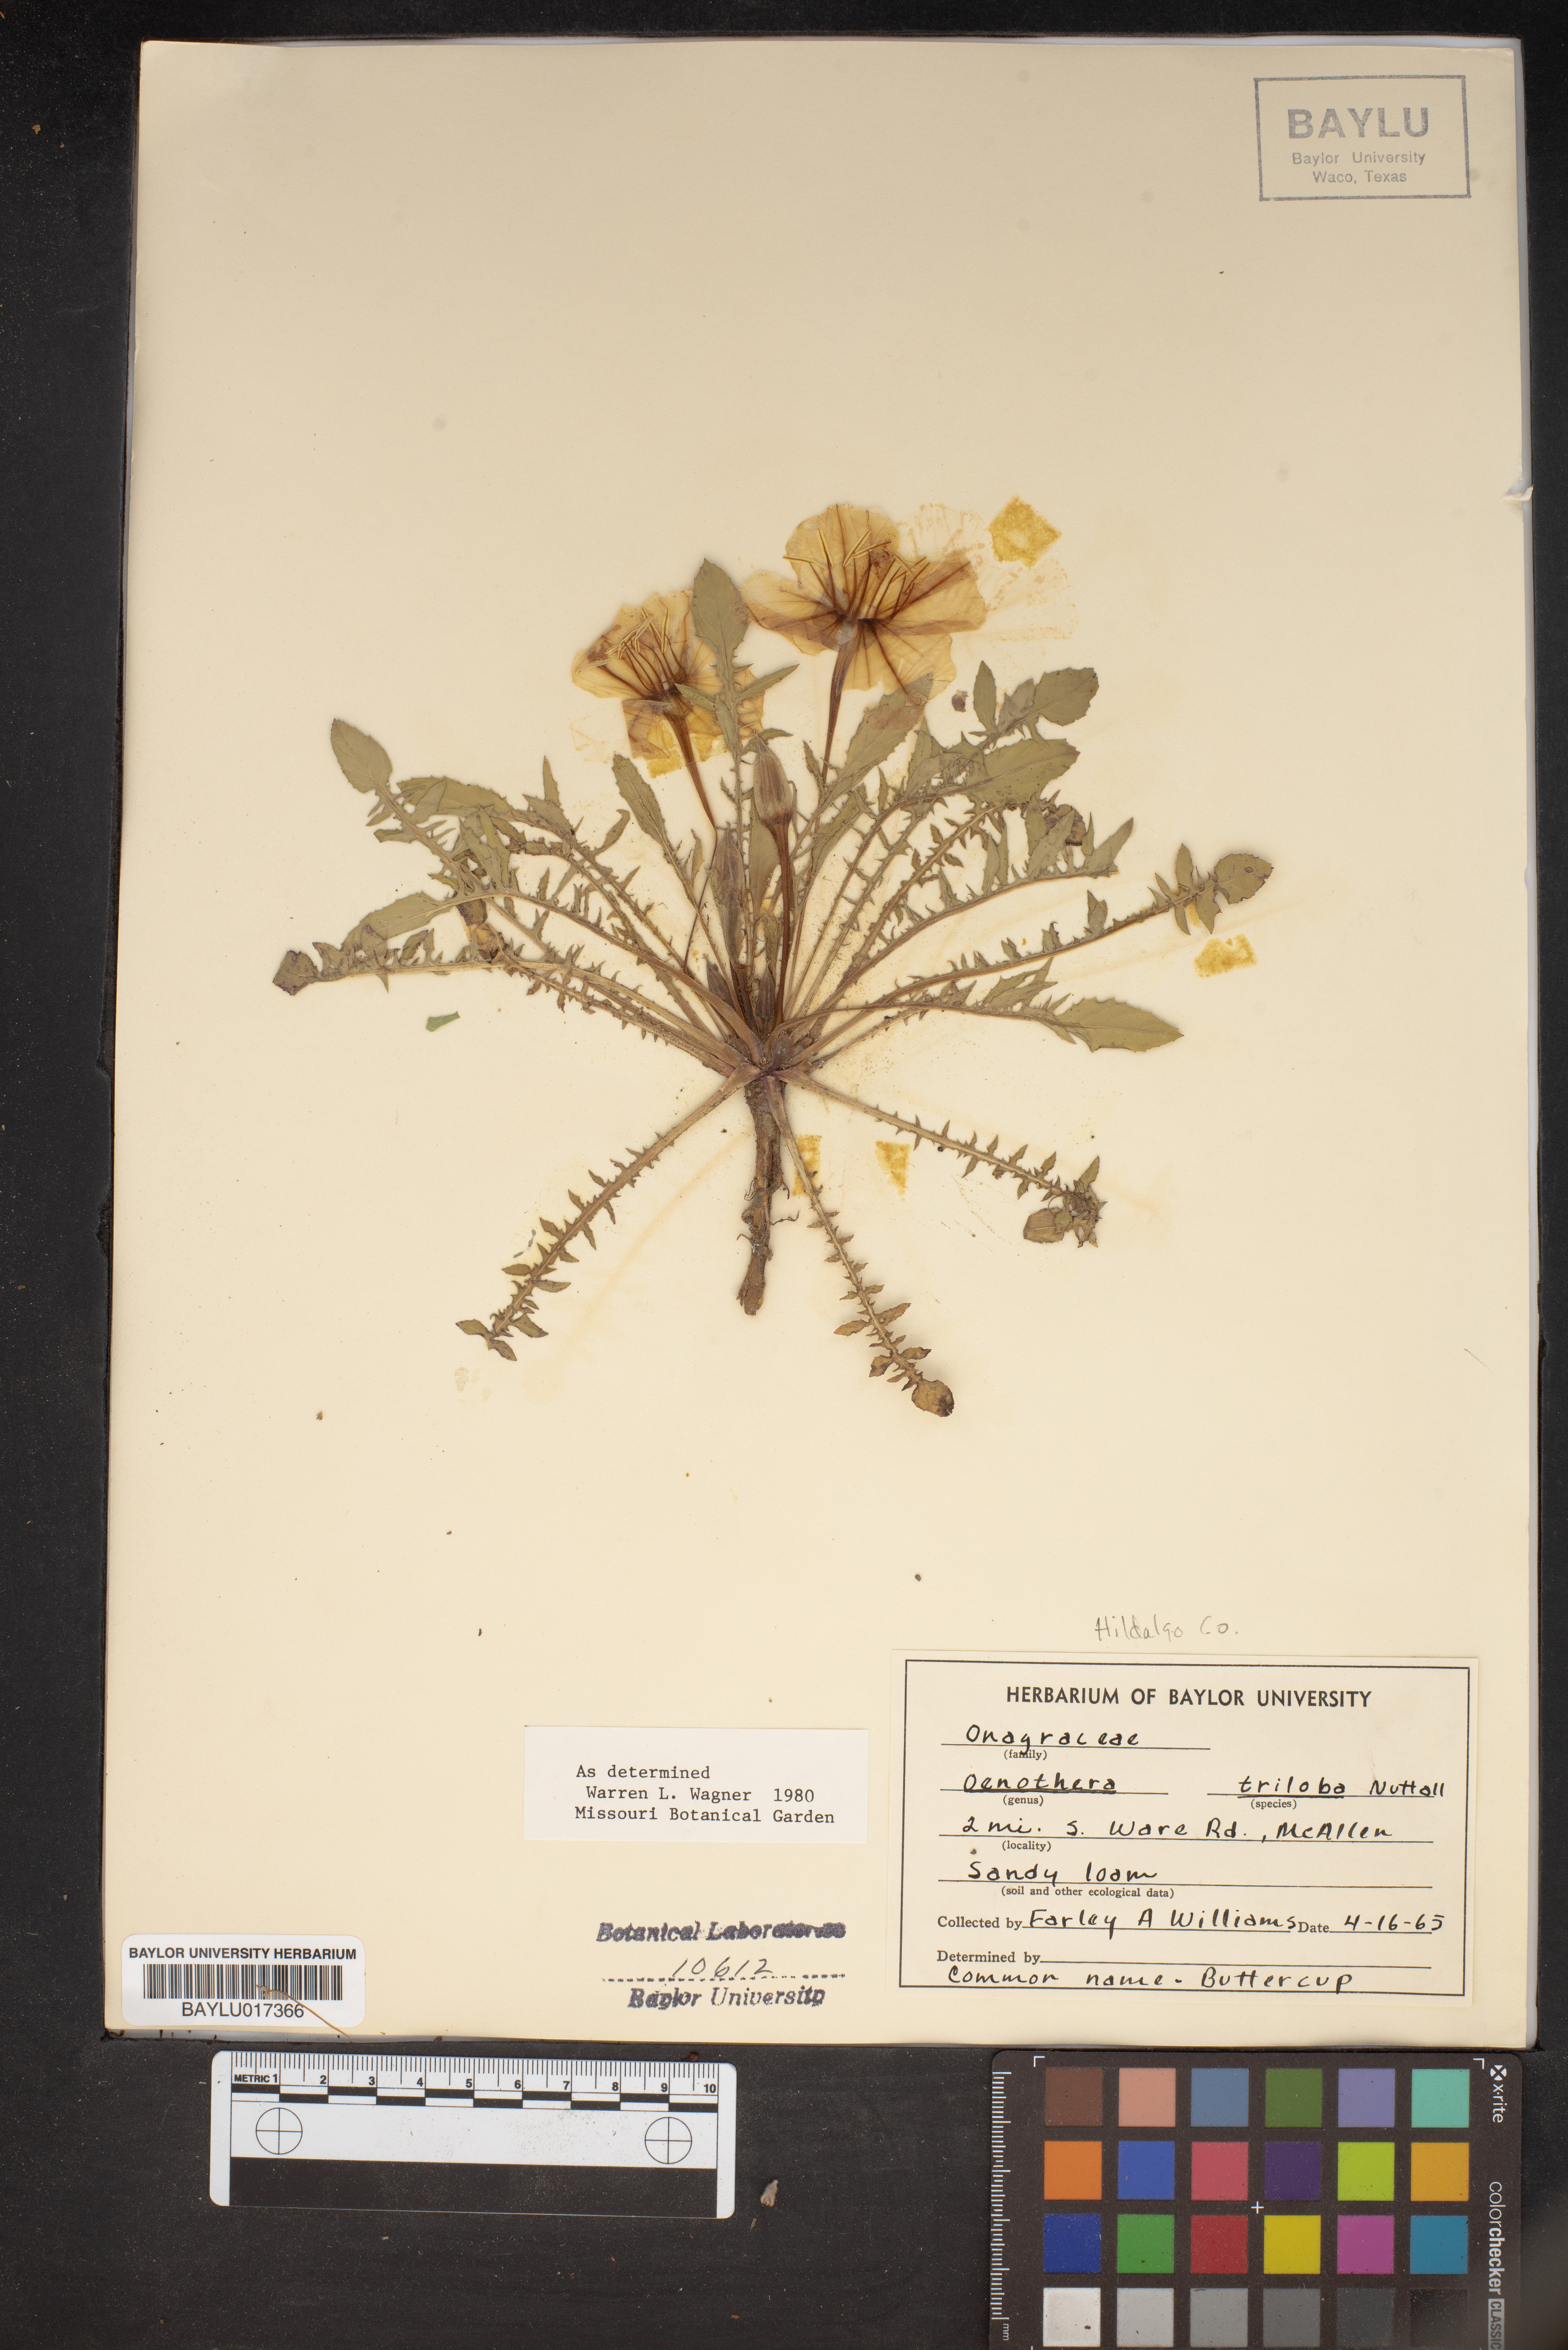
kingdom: Plantae
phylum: Tracheophyta
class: Magnoliopsida
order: Myrtales
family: Onagraceae
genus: Oenothera
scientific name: Oenothera triloba
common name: Sessile evening-primrose
